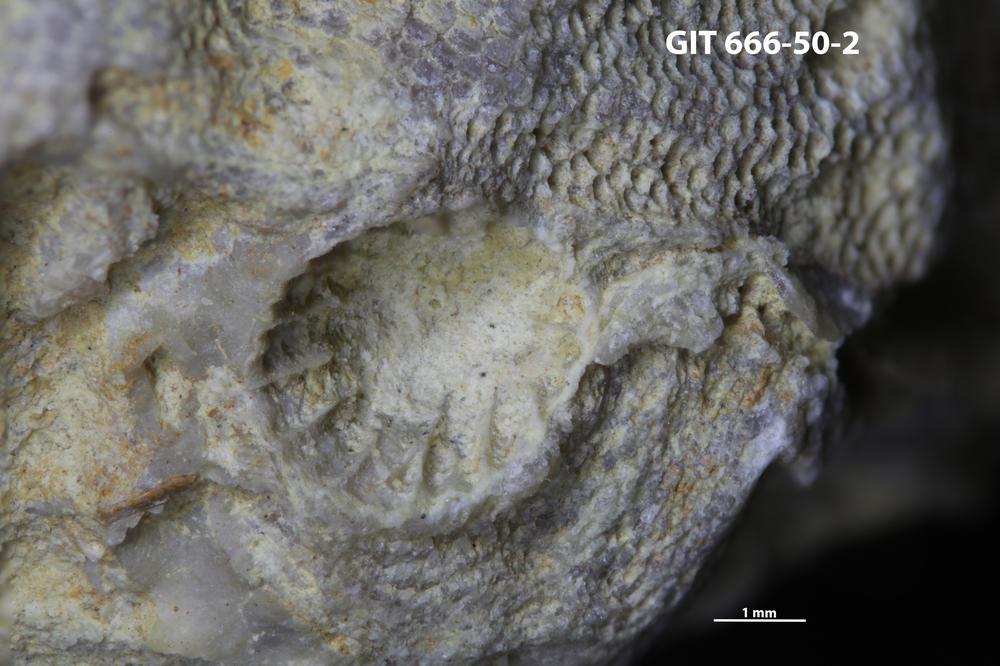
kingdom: Animalia
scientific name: Animalia
